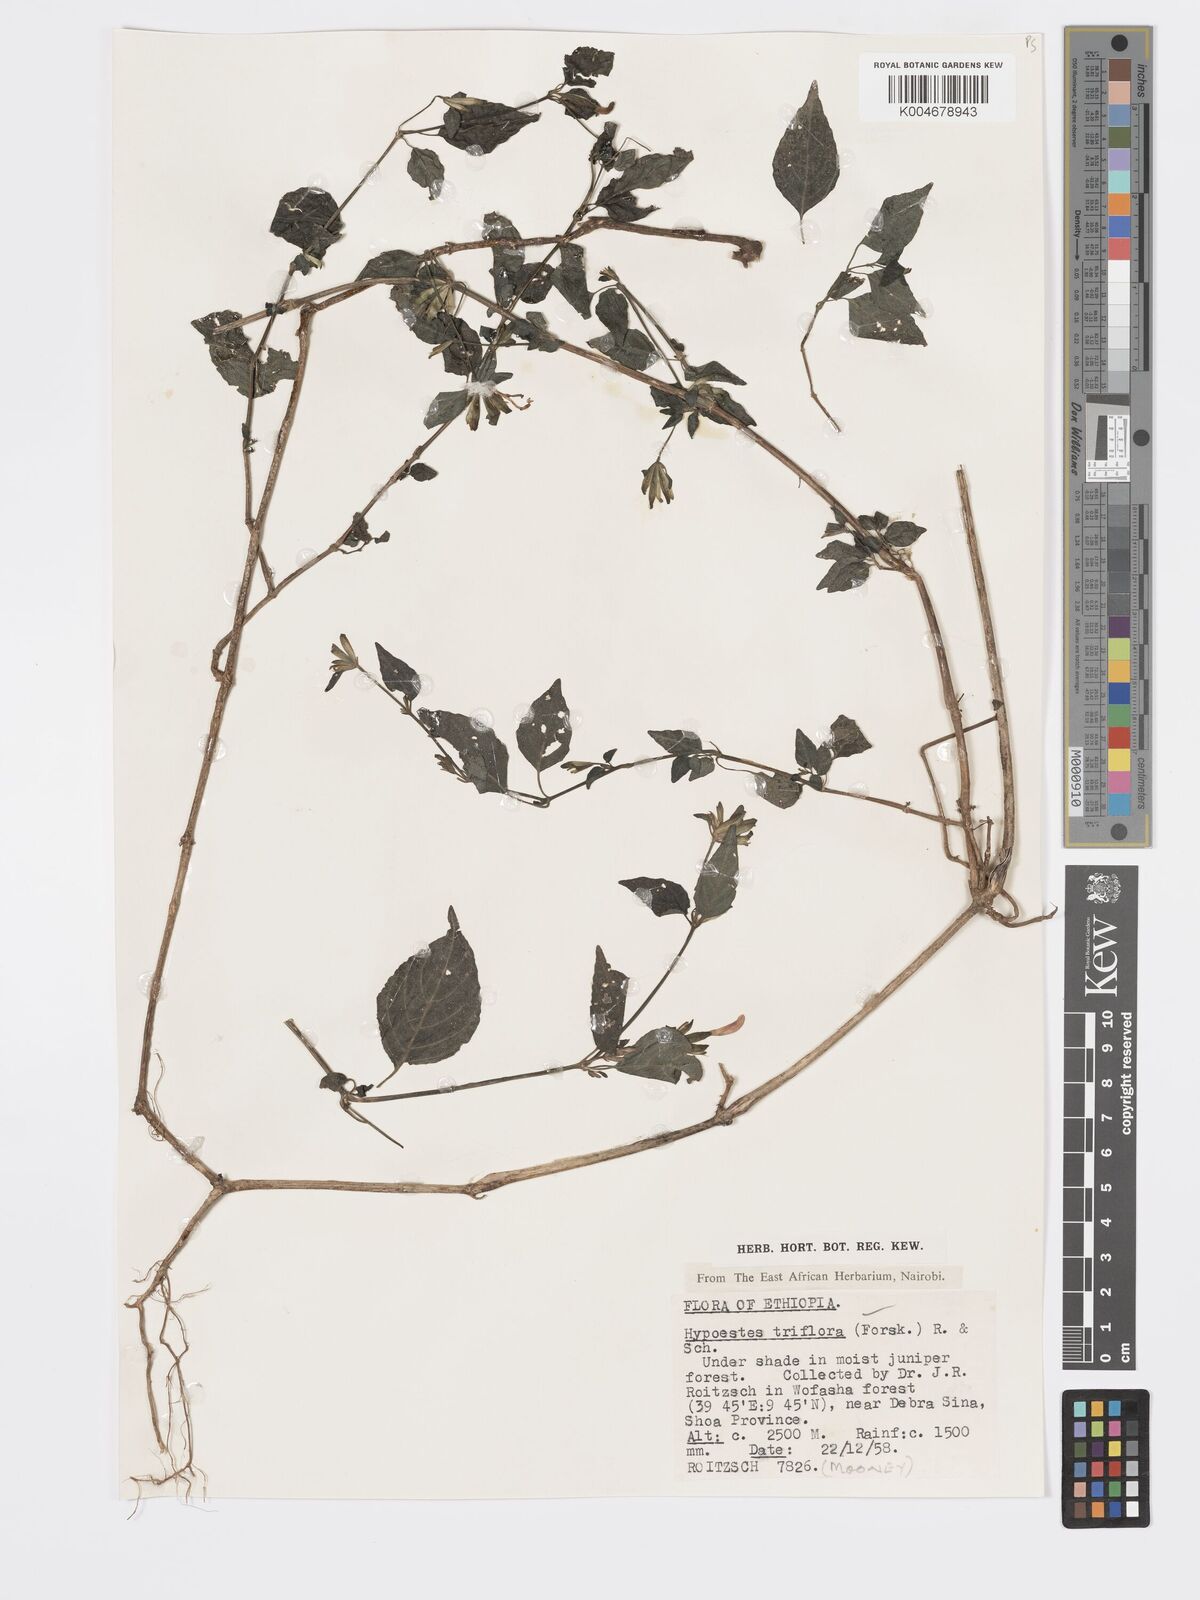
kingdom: Plantae
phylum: Tracheophyta
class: Magnoliopsida
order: Lamiales
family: Acanthaceae
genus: Hypoestes
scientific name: Hypoestes triflora
